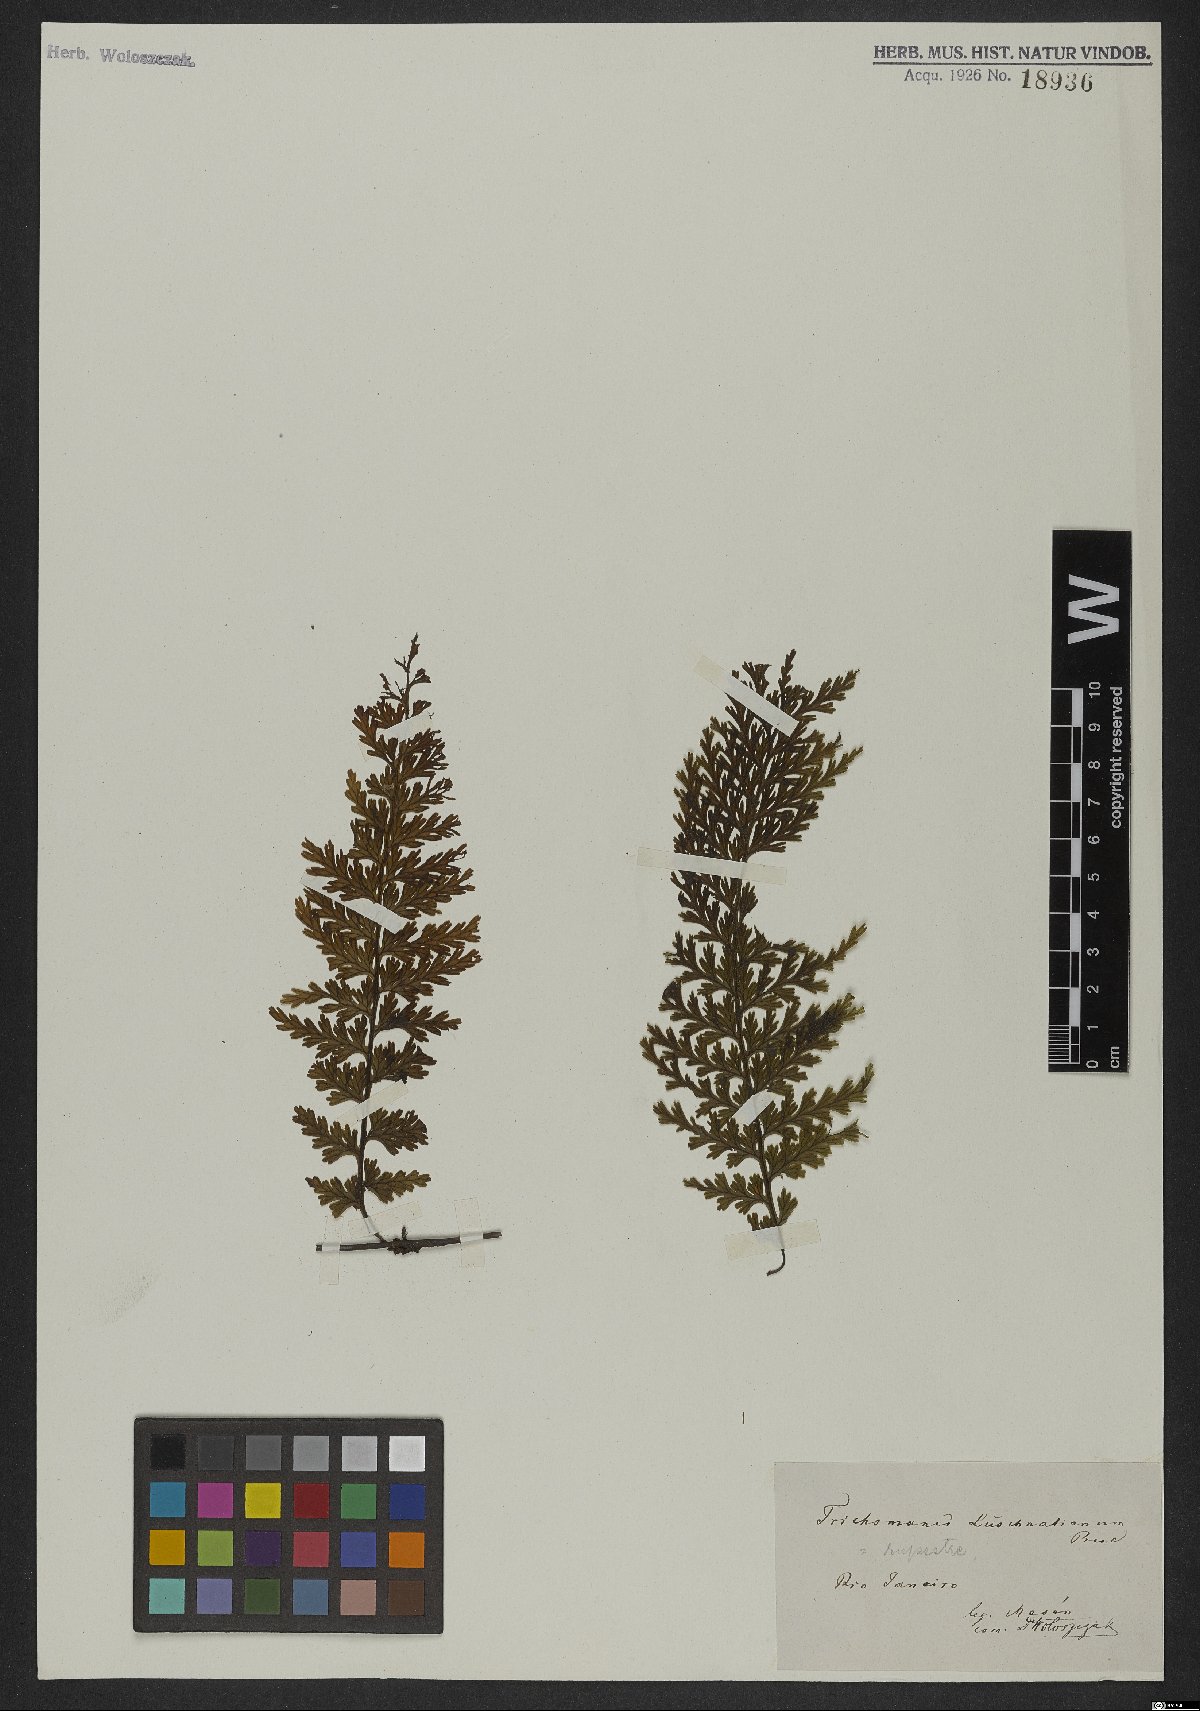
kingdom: Plantae
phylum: Tracheophyta
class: Polypodiopsida
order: Hymenophyllales
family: Hymenophyllaceae
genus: Vandenboschia
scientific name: Vandenboschia rupestris
